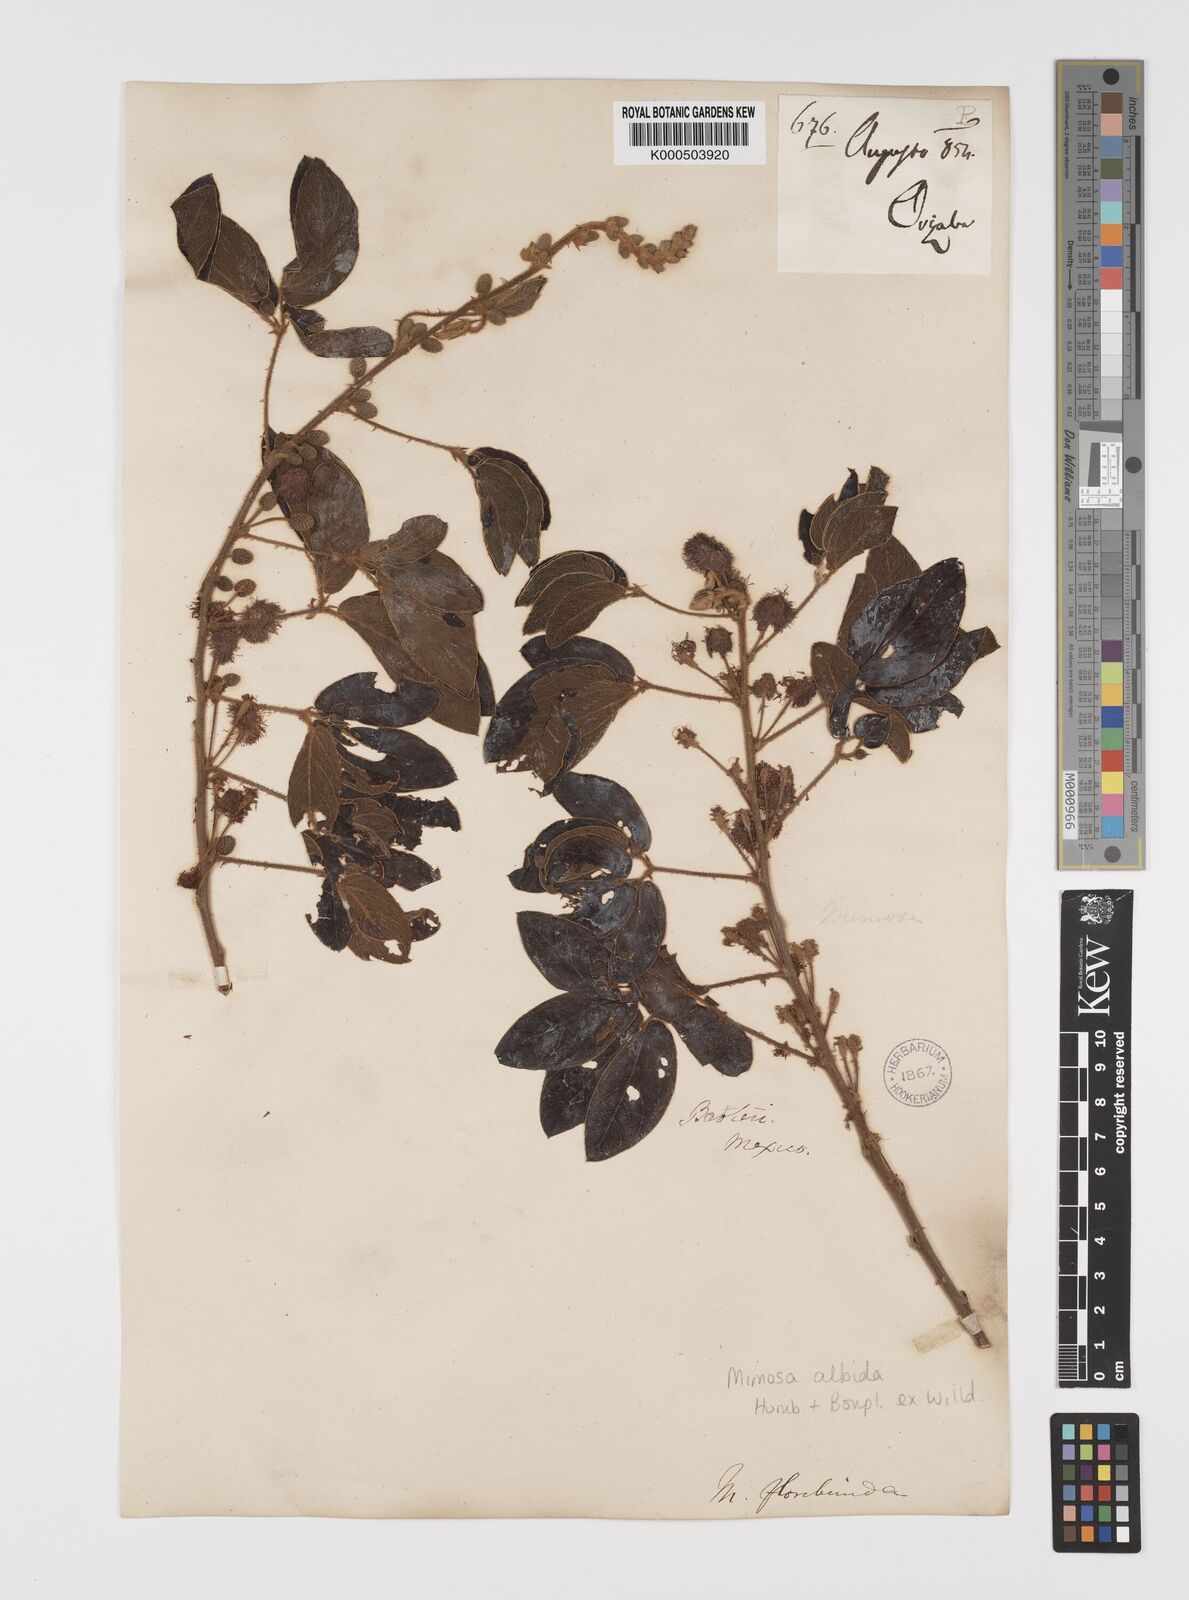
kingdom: Plantae
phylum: Tracheophyta
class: Magnoliopsida
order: Fabales
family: Fabaceae
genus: Mimosa
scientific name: Mimosa albida
